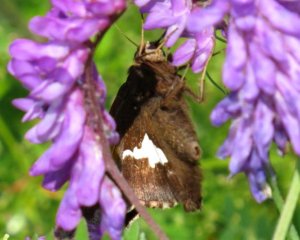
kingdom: Animalia
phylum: Arthropoda
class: Insecta
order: Lepidoptera
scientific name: Lepidoptera
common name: Butterflies
